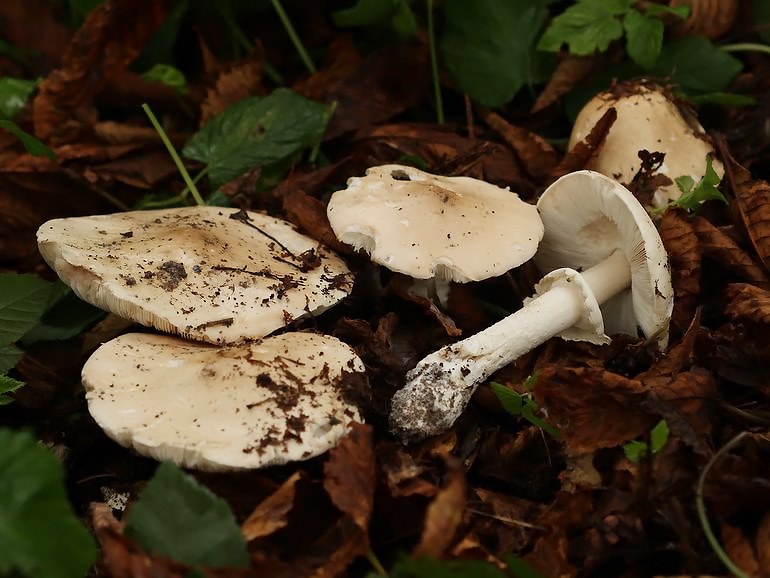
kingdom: Fungi
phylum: Basidiomycota
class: Agaricomycetes
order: Agaricales
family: Amanitaceae
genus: Limacellopsis
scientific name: Limacellopsis guttata
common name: tåre-snekkehat
